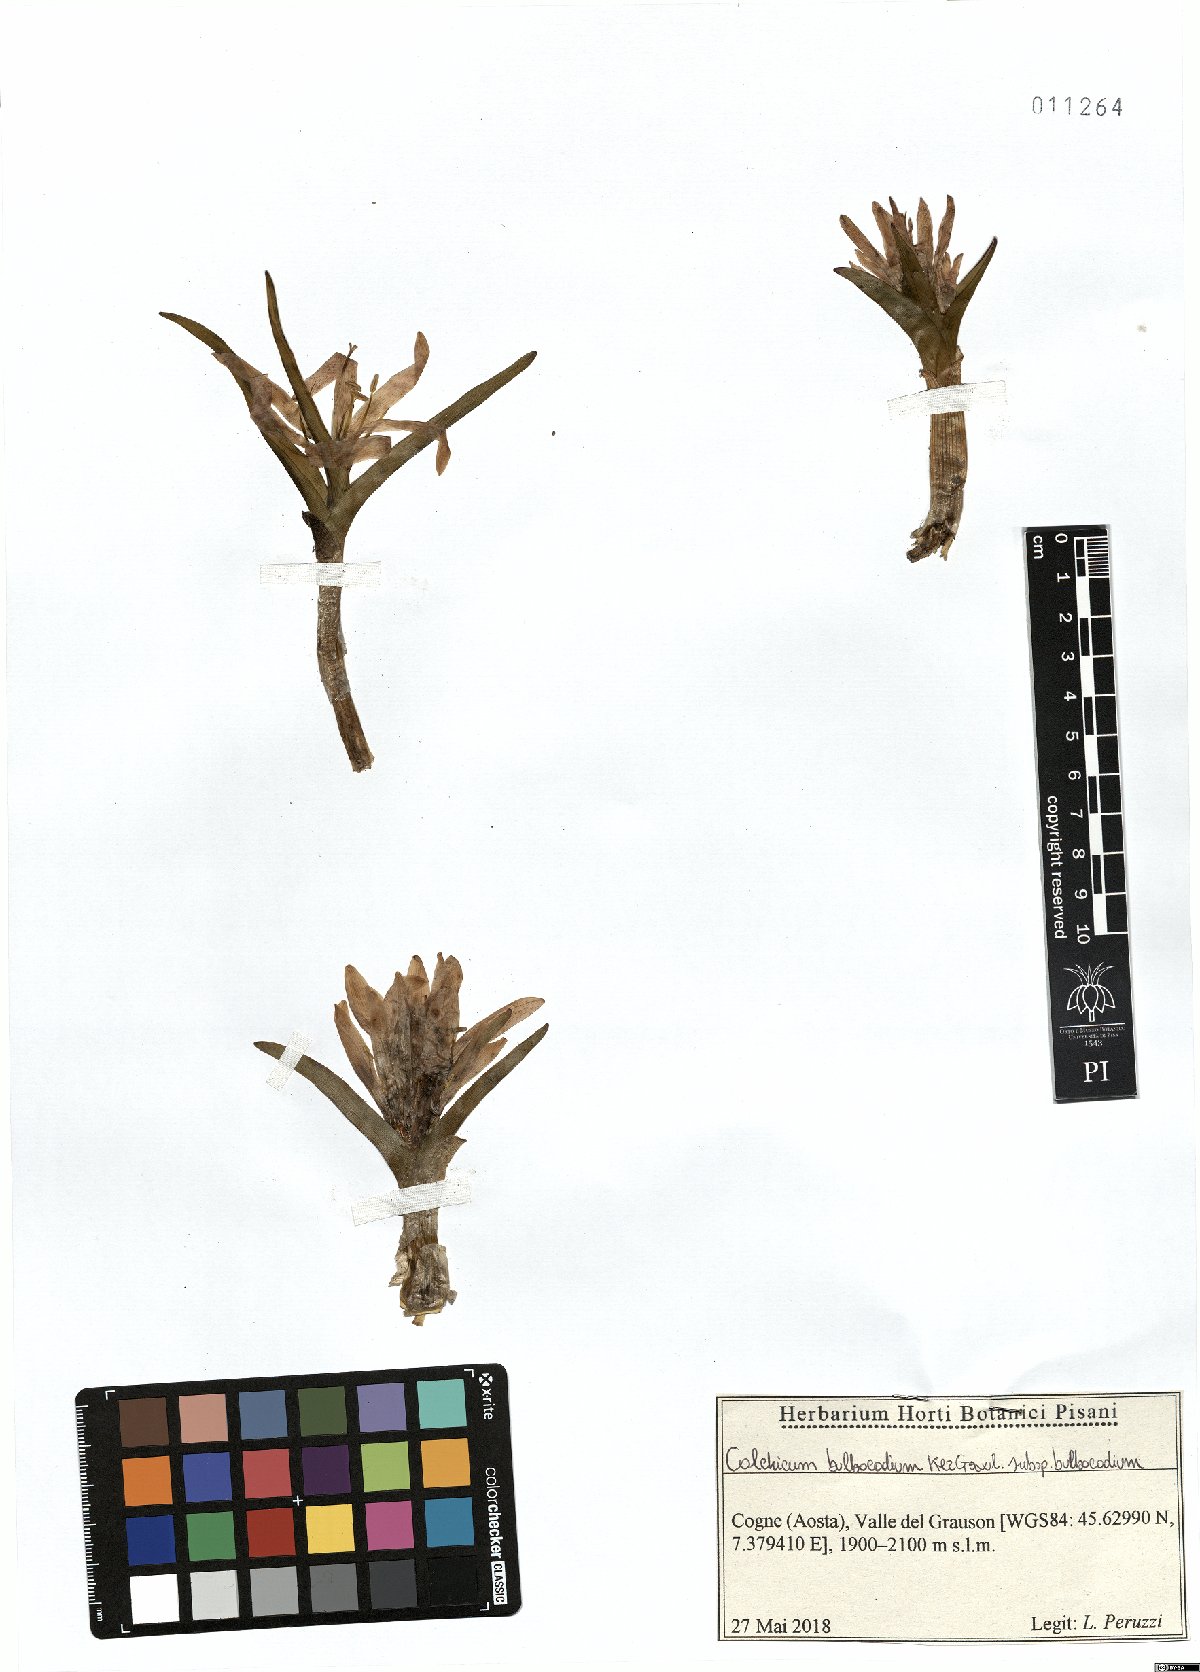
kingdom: Plantae
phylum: Tracheophyta
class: Liliopsida
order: Liliales
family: Colchicaceae
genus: Colchicum
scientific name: Colchicum bulbocodium
